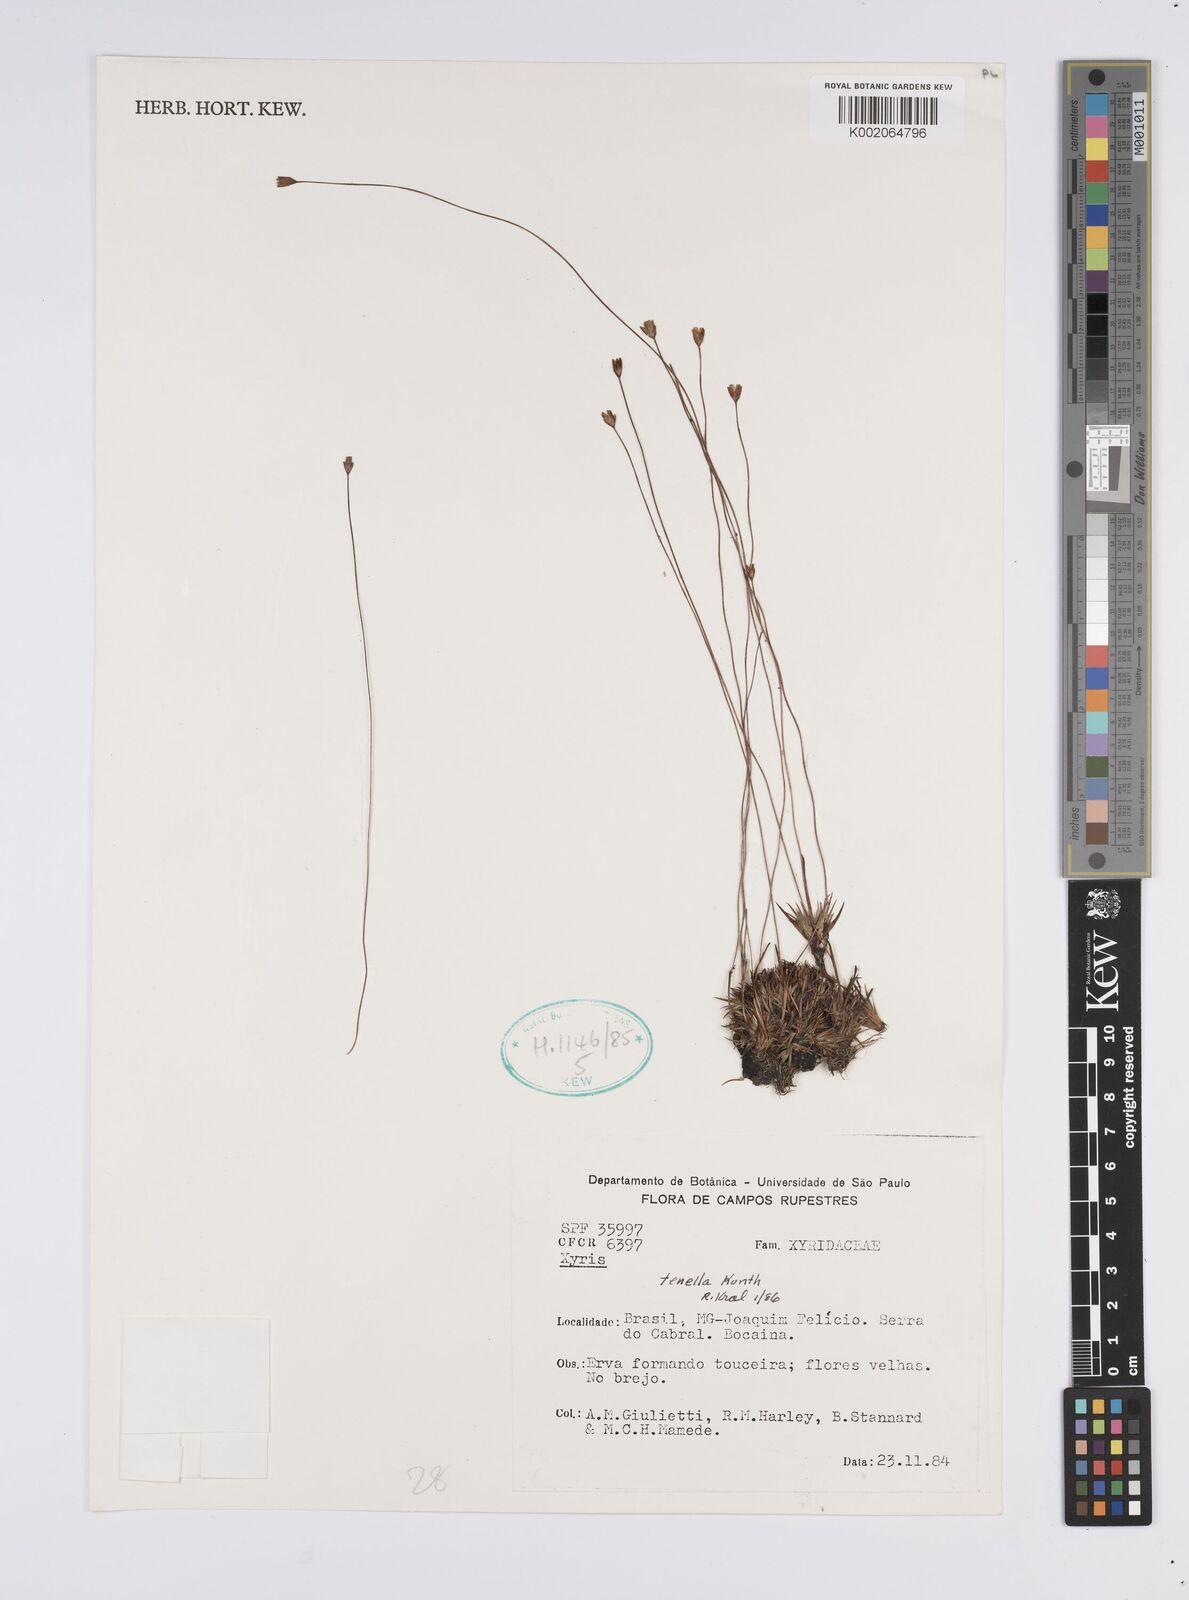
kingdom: Plantae
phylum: Tracheophyta
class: Liliopsida
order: Poales
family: Xyridaceae
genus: Xyris
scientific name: Xyris tenella
